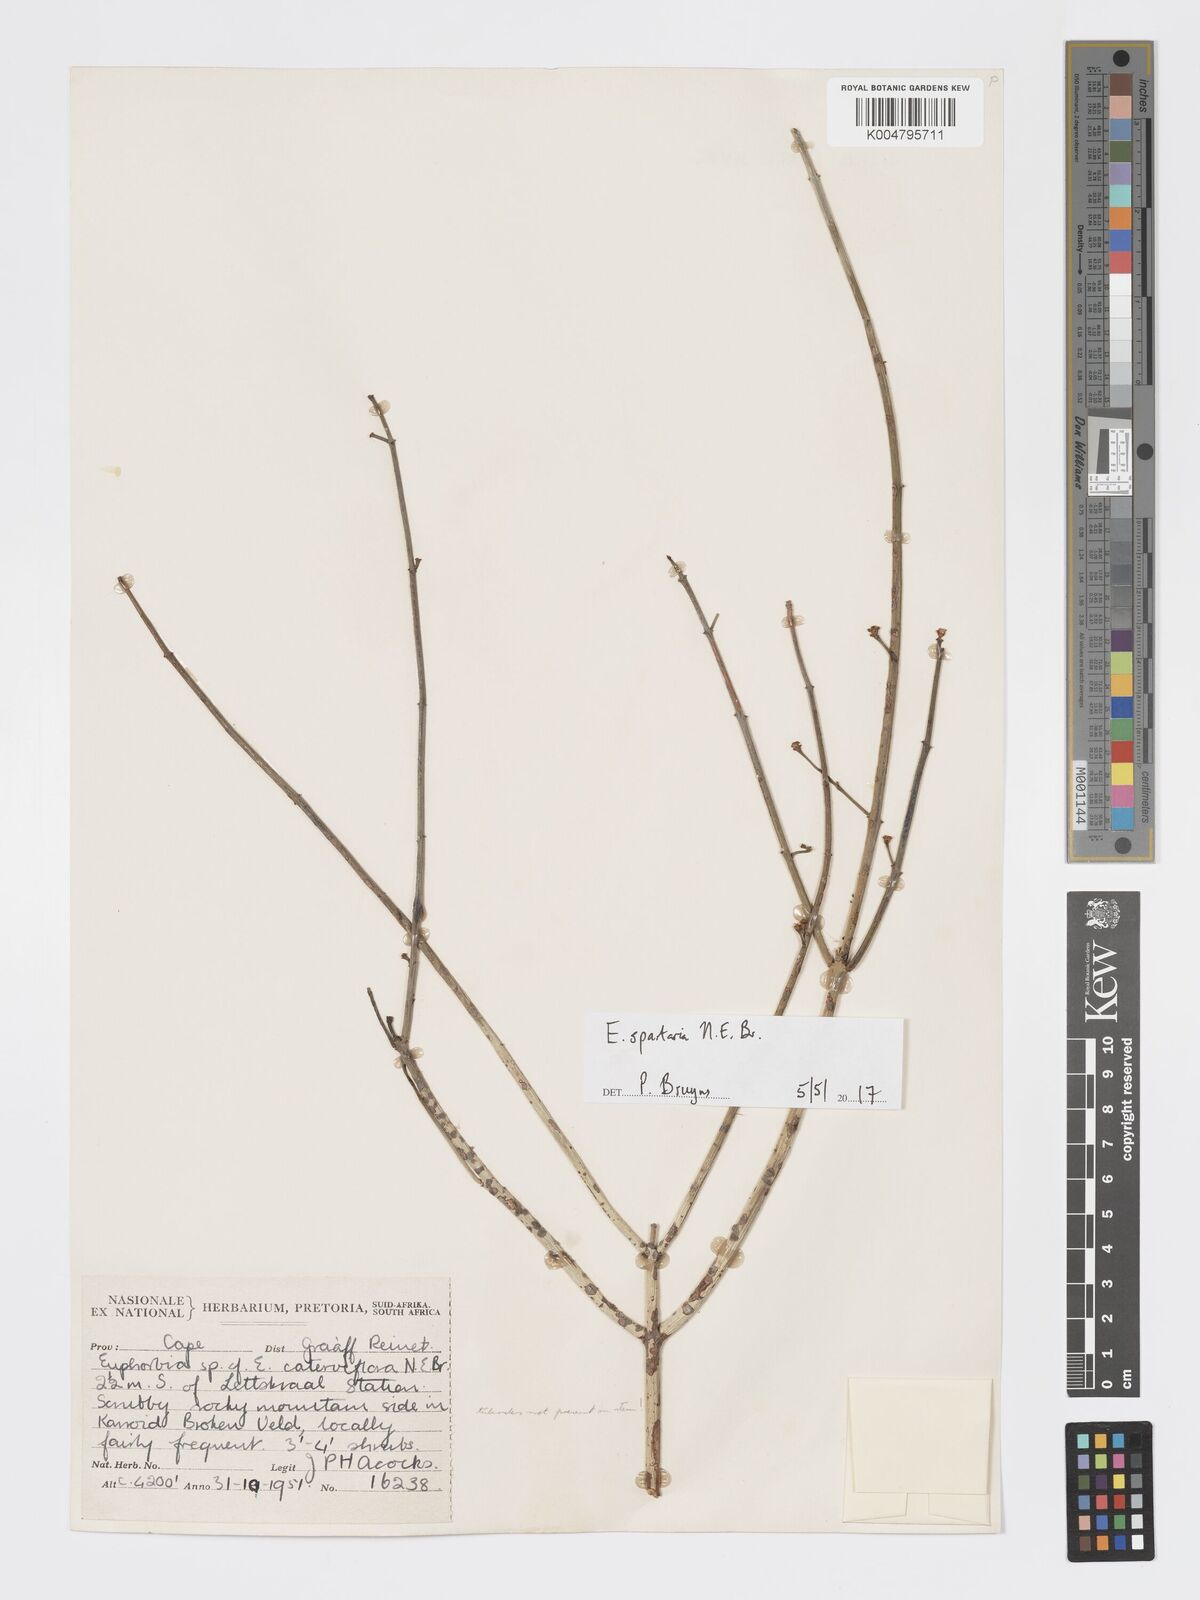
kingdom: Plantae
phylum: Tracheophyta
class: Magnoliopsida
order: Malpighiales
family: Euphorbiaceae
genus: Euphorbia
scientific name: Euphorbia spartaria
